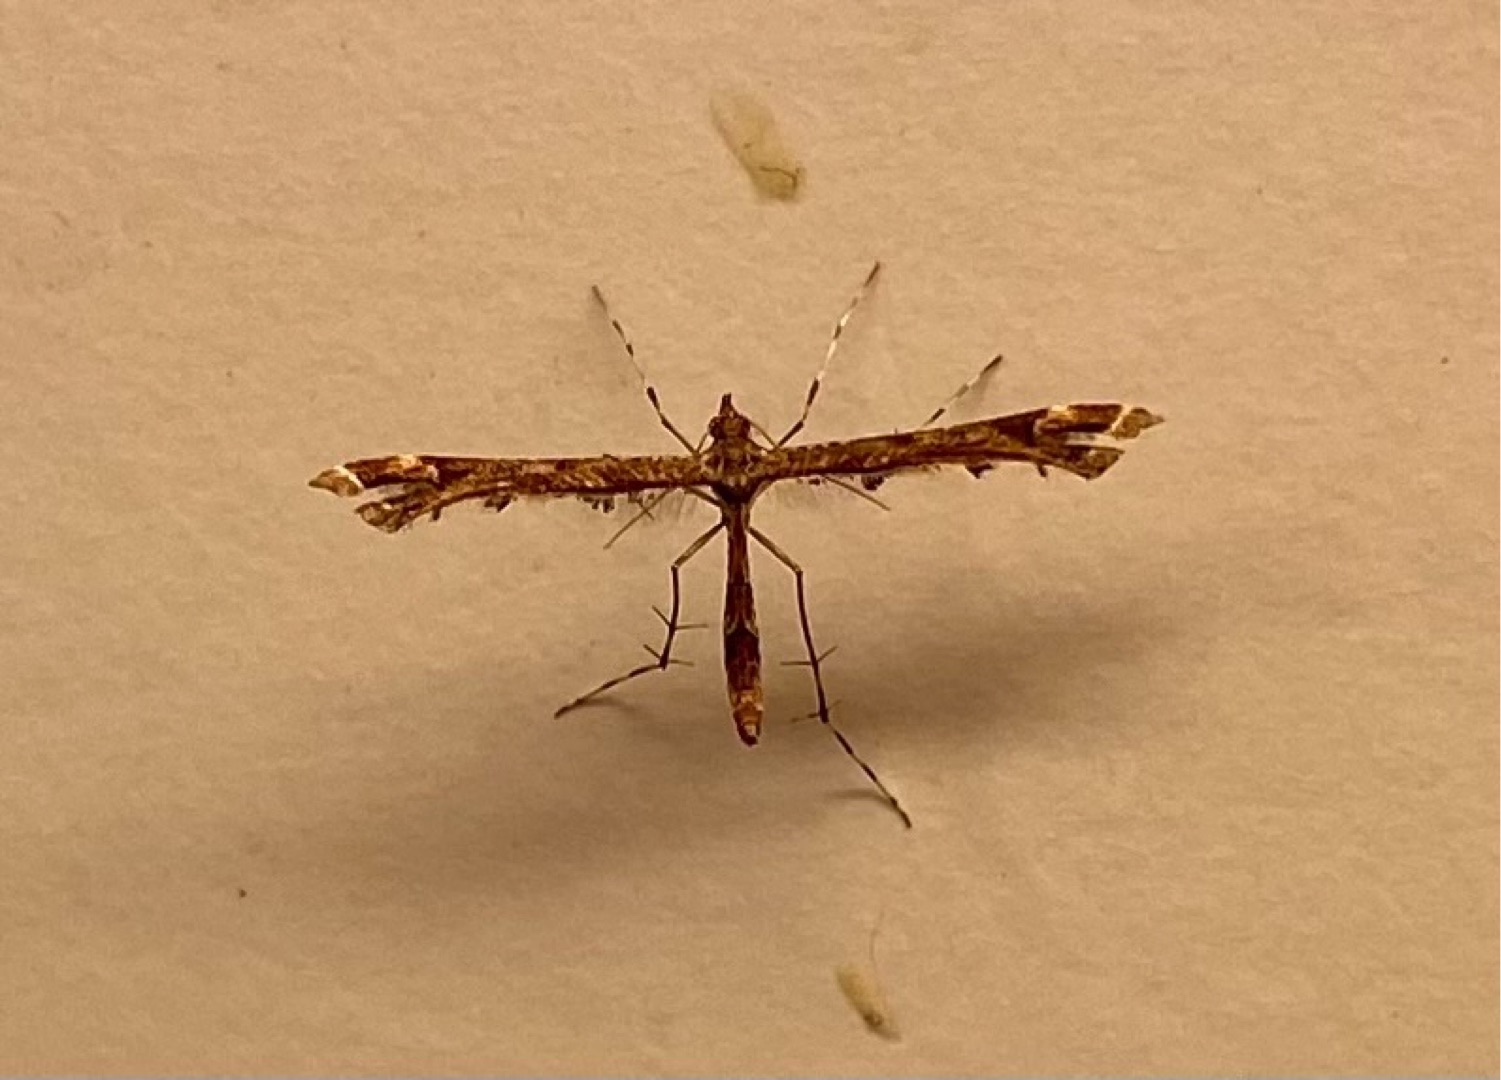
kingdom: Animalia
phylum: Arthropoda
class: Insecta
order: Lepidoptera
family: Pterophoridae
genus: Amblyptilia
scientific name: Amblyptilia acanthadactyla
